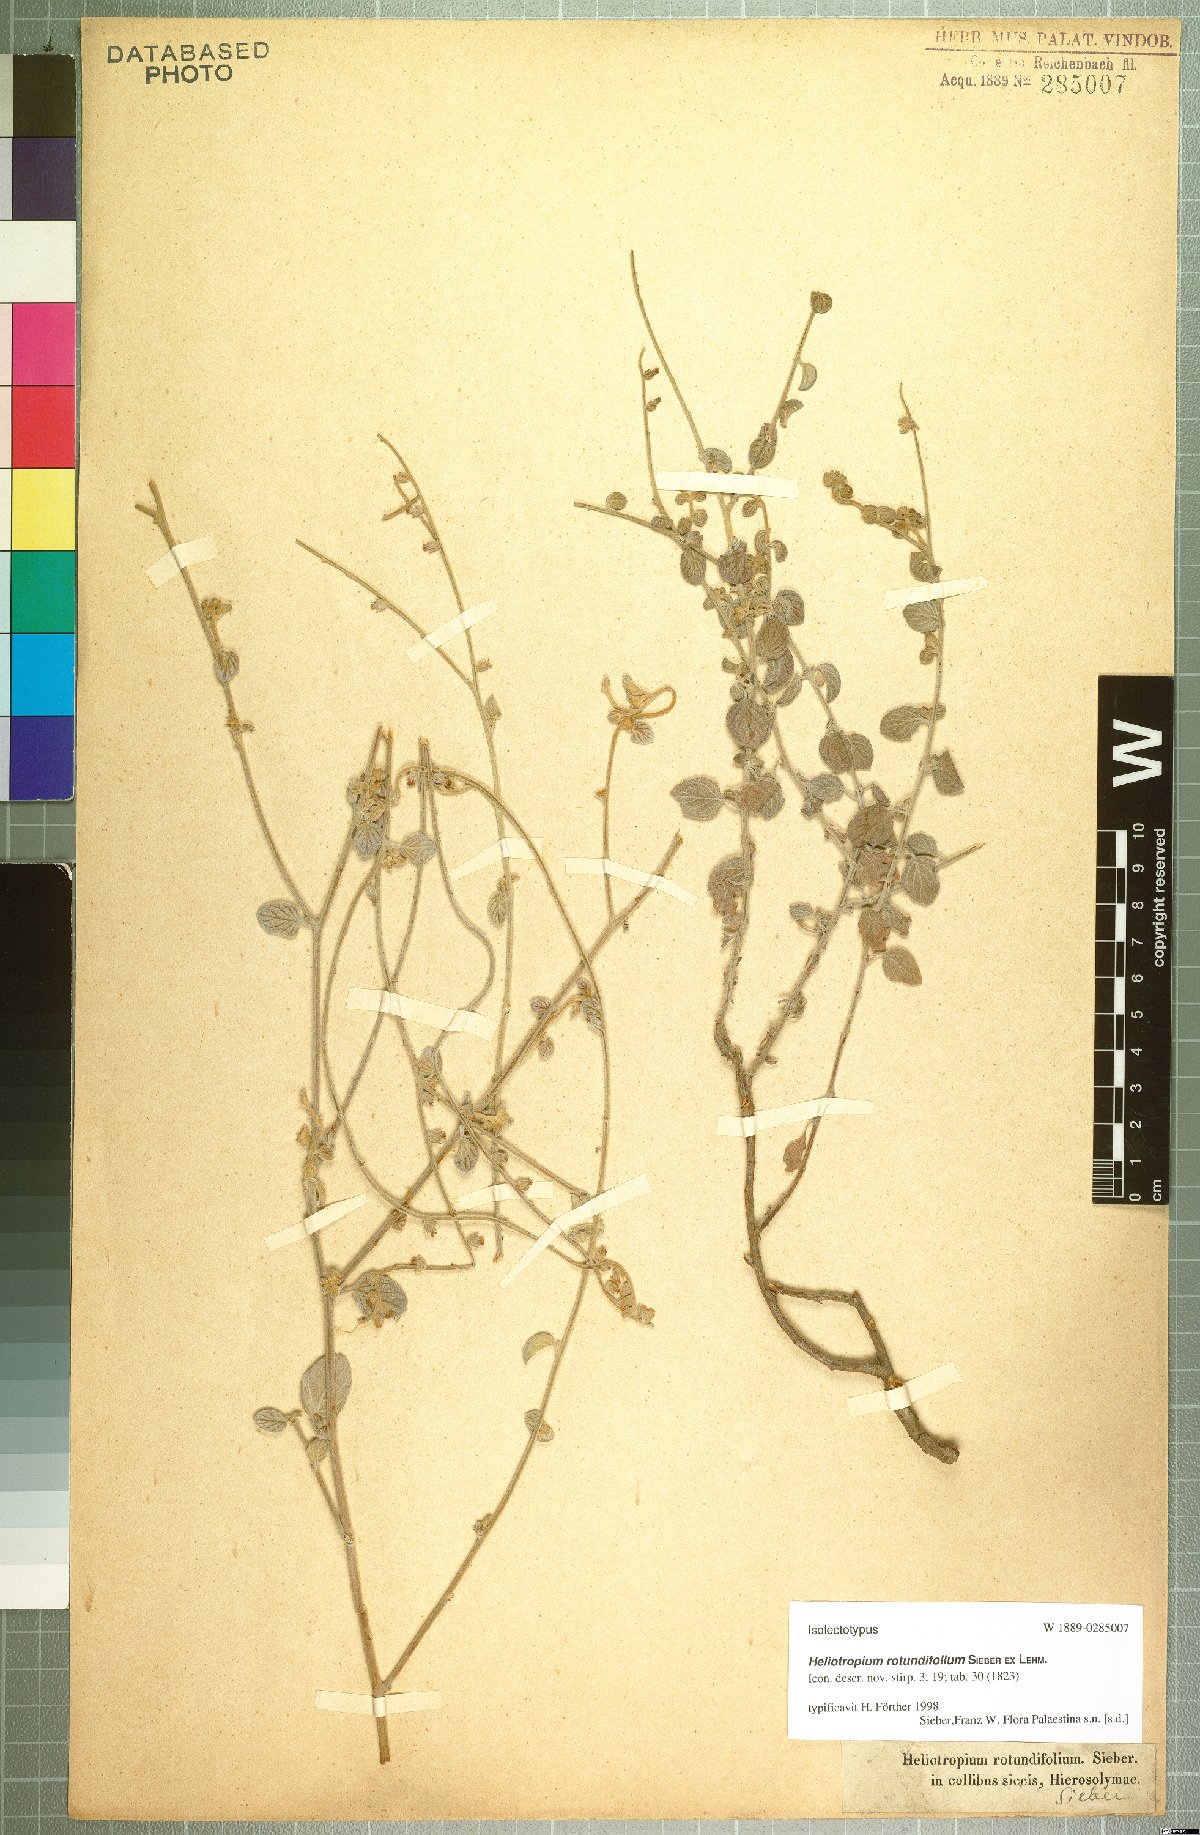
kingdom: Plantae
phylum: Tracheophyta
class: Magnoliopsida
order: Boraginales
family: Heliotropiaceae
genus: Heliotropium
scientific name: Heliotropium rotundifolium
